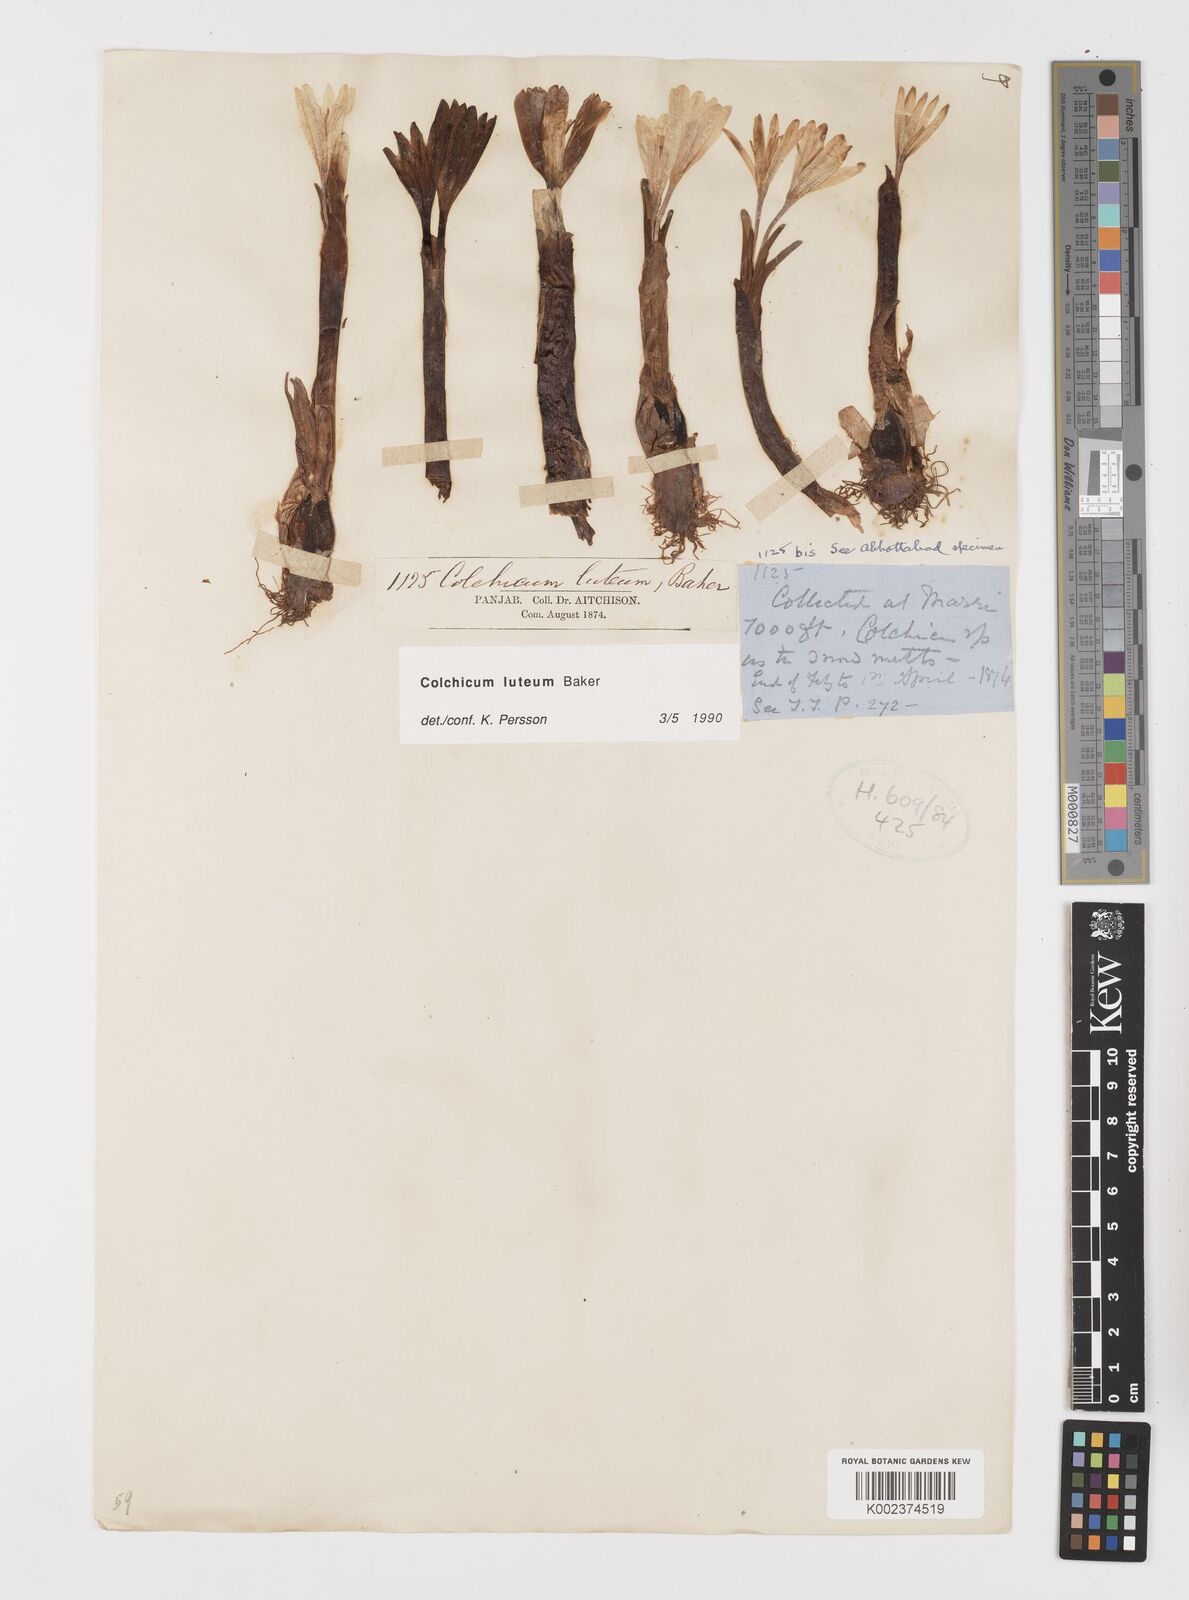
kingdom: Plantae
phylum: Tracheophyta
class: Liliopsida
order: Liliales
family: Colchicaceae
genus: Colchicum
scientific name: Colchicum luteum
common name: Indian colchicum
